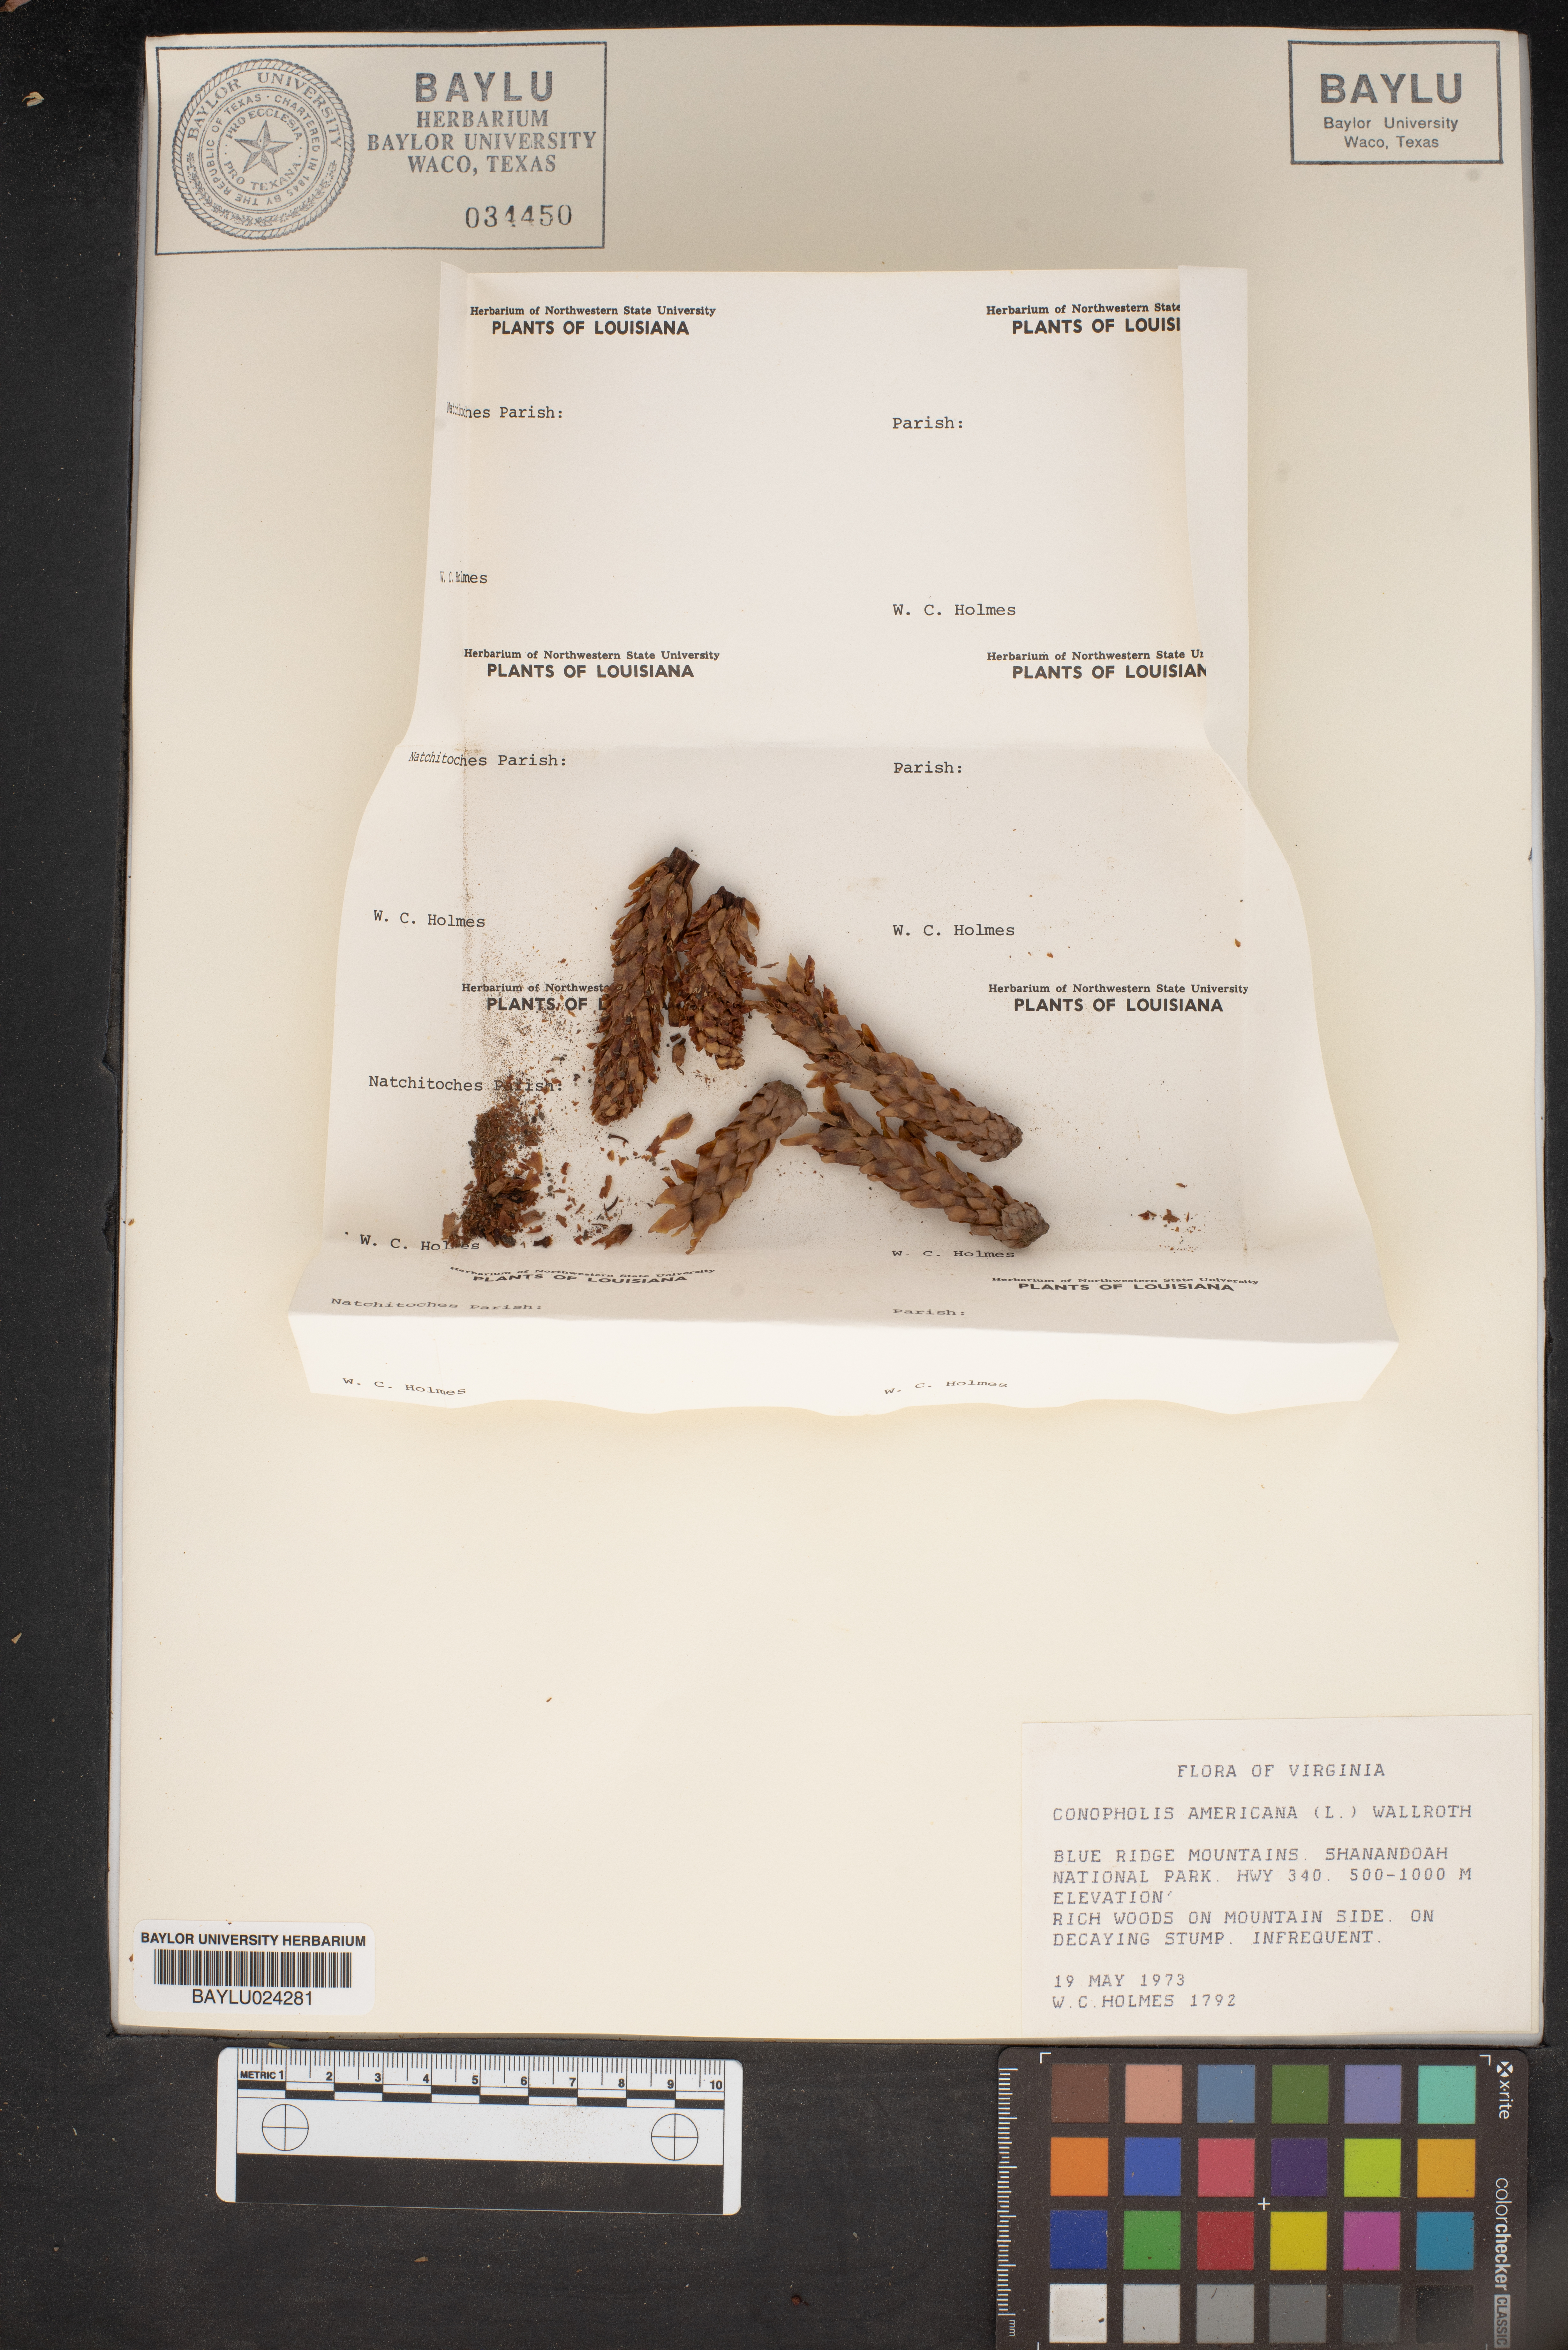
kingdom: Plantae
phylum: Tracheophyta
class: Magnoliopsida
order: Lamiales
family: Orobanchaceae
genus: Conopholis
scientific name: Conopholis americana
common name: American cancer-root
